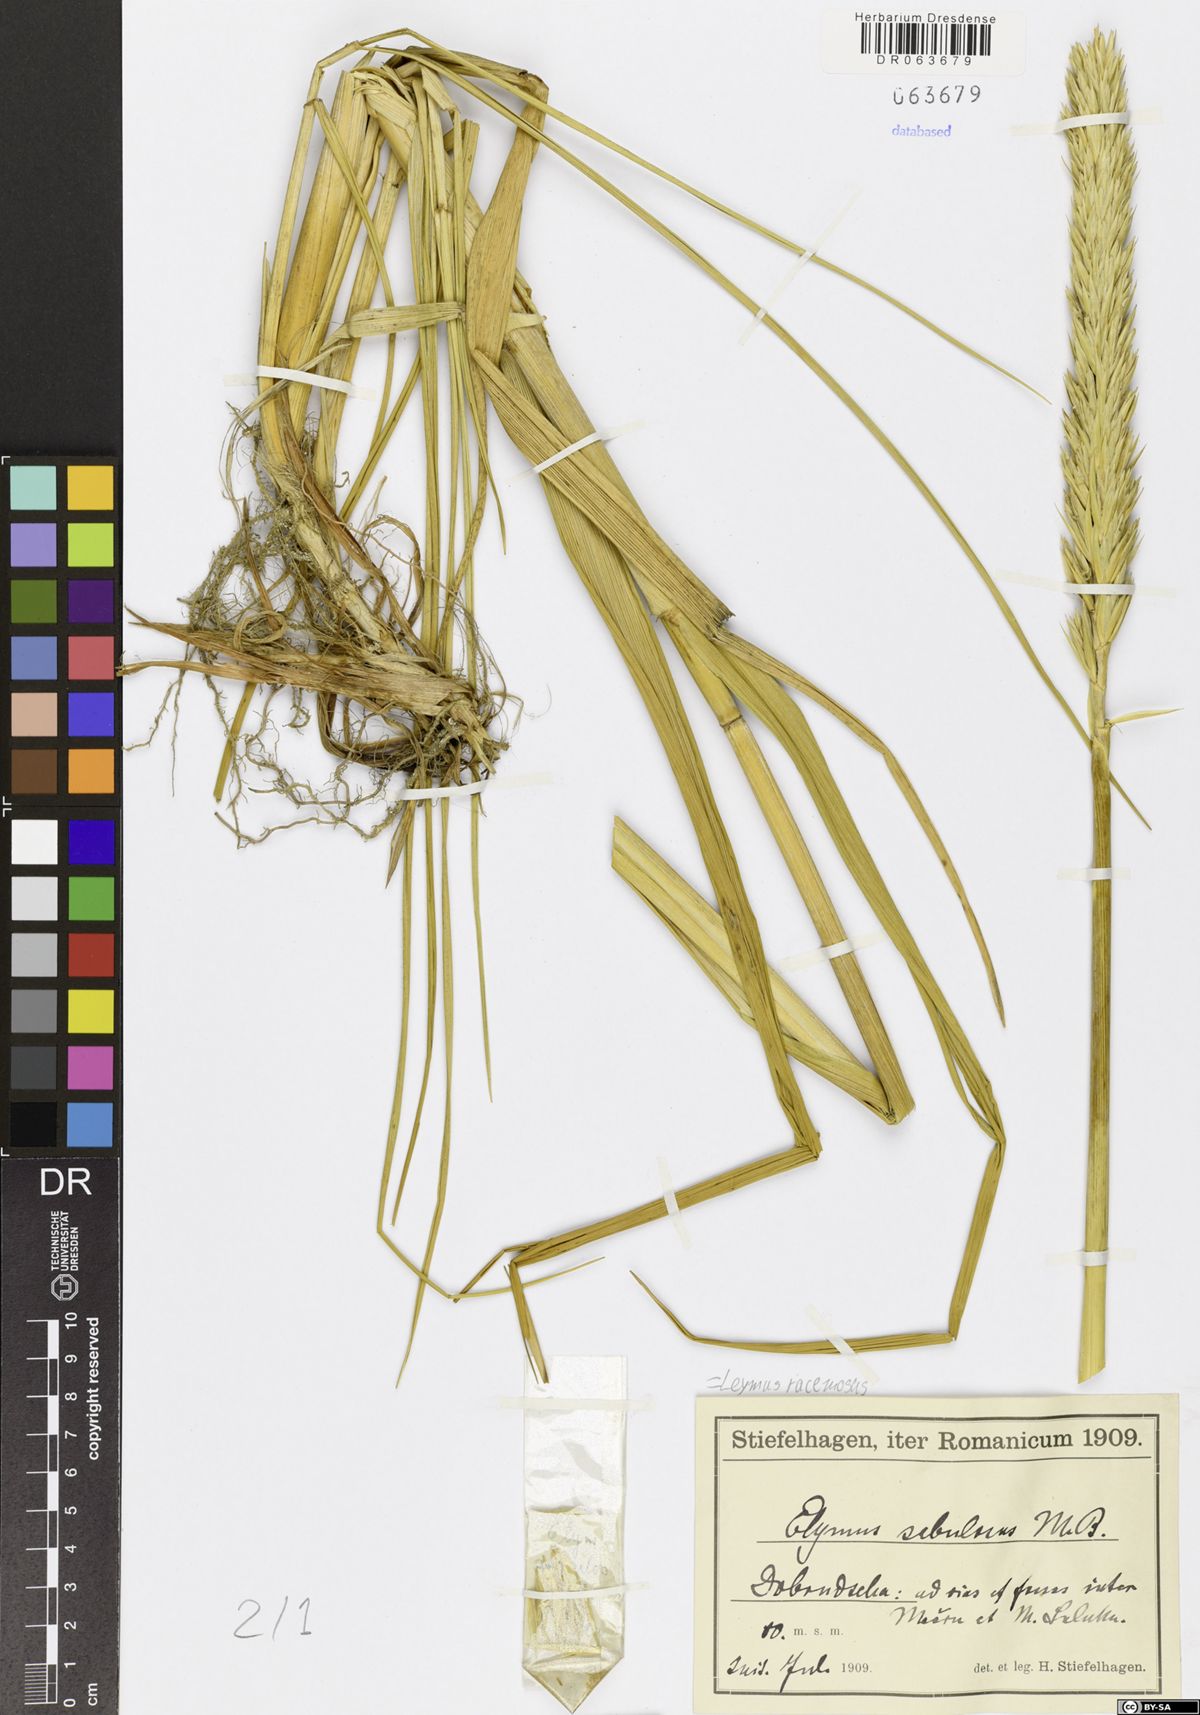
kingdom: Plantae
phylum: Tracheophyta
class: Liliopsida
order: Poales
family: Poaceae
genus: Leymus
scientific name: Leymus racemosus
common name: Mammoth wildrye
